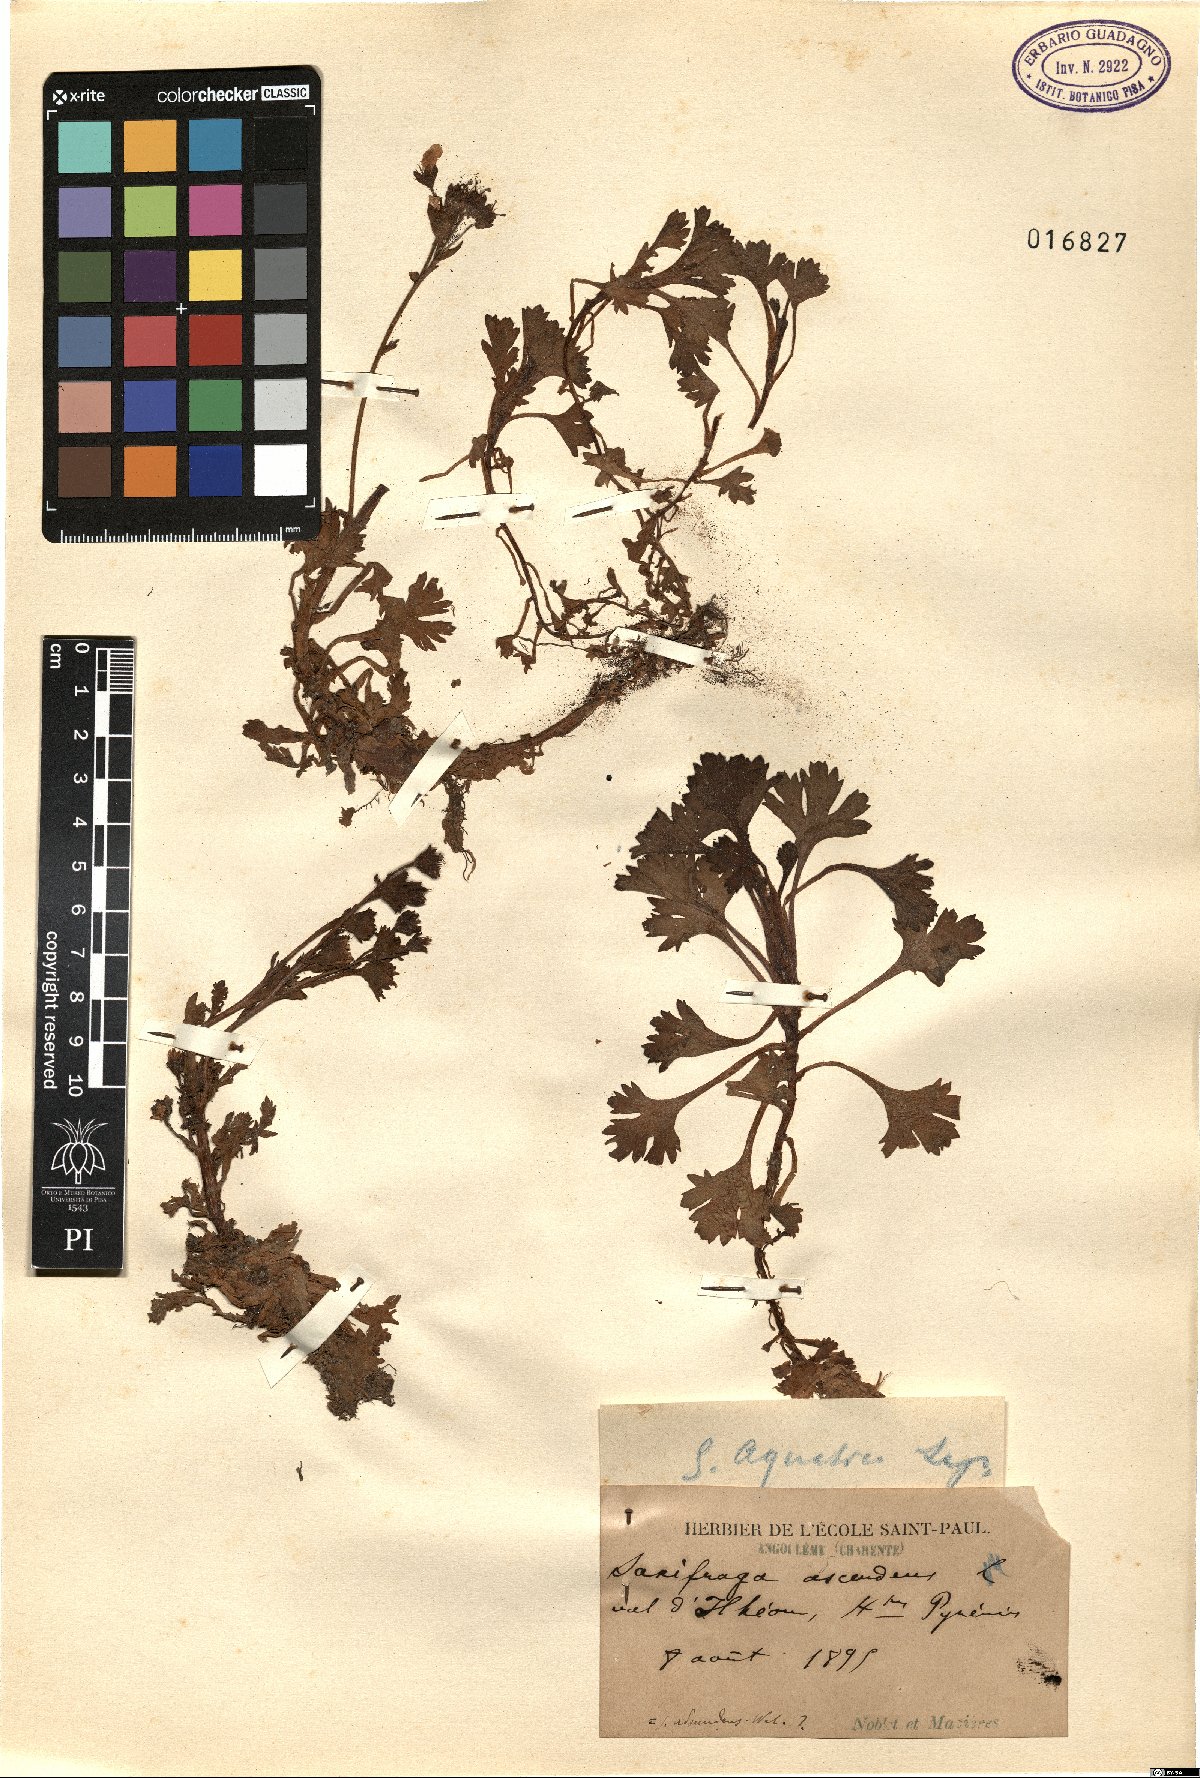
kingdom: Plantae
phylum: Tracheophyta
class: Magnoliopsida
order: Saxifragales
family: Saxifragaceae
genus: Saxifraga
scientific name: Saxifraga aquatica
